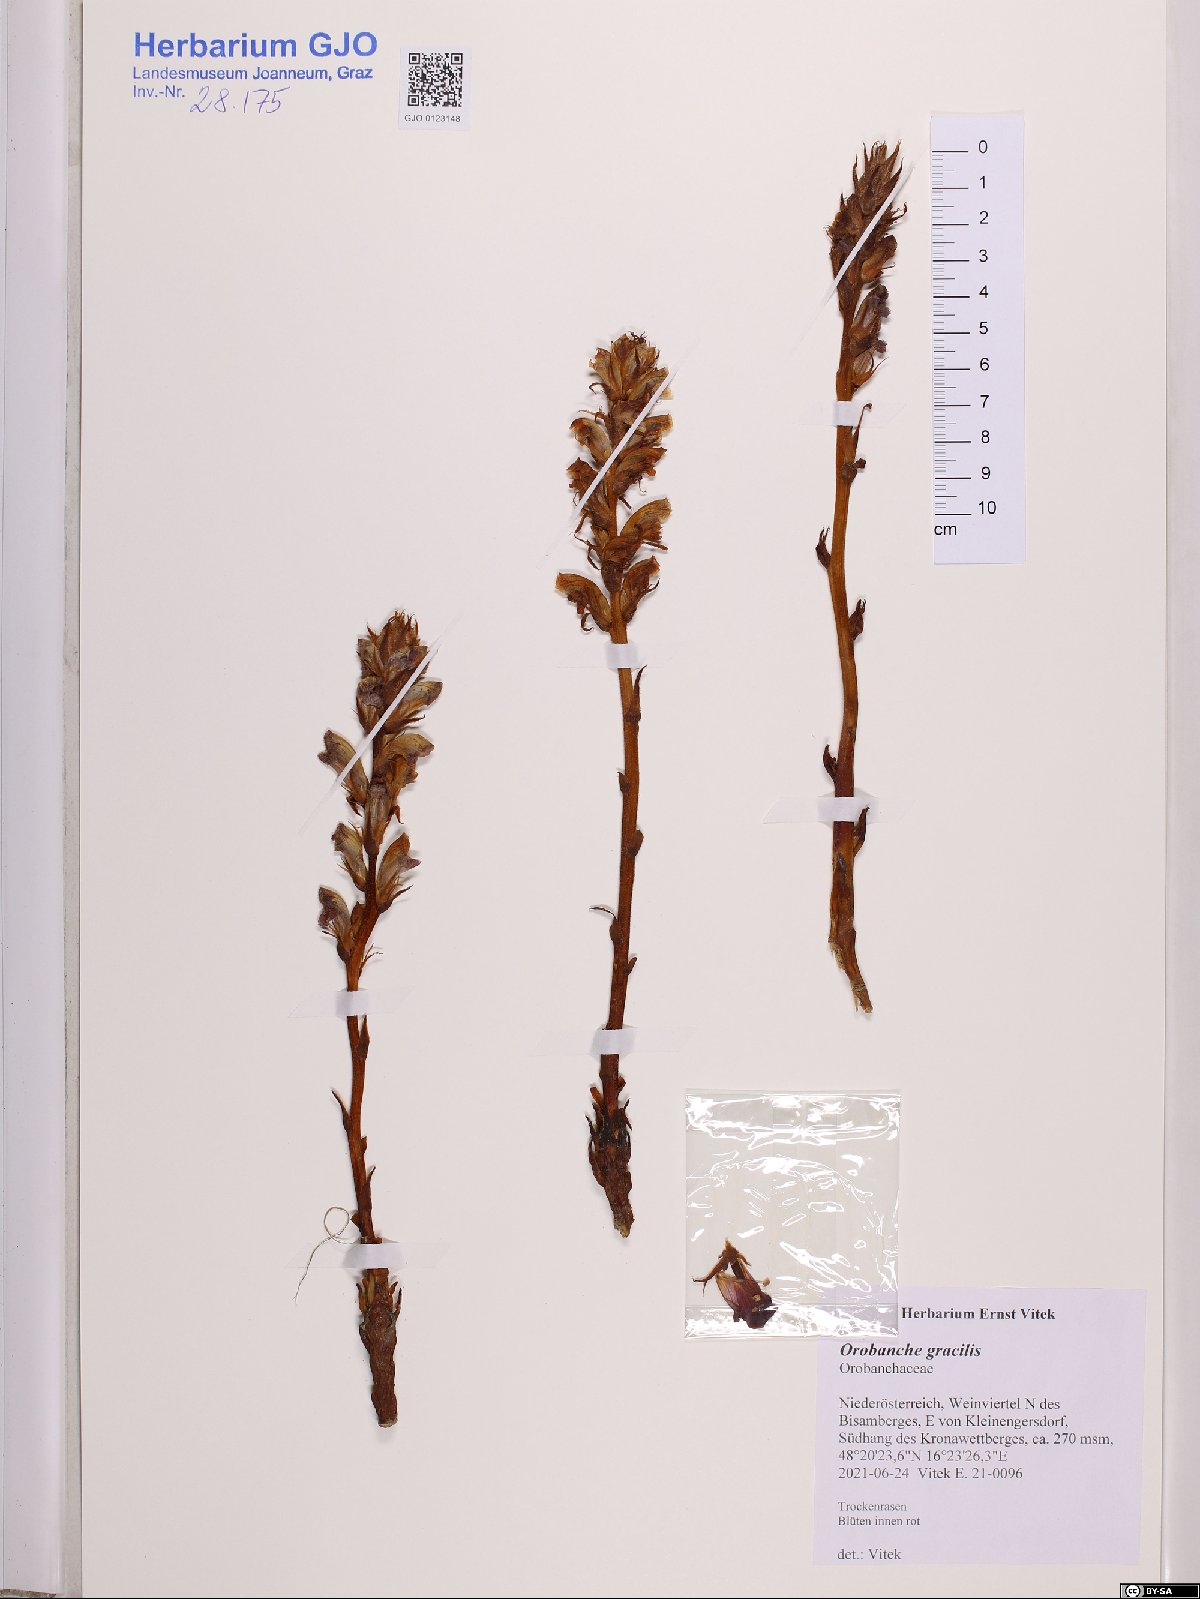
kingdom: Plantae
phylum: Tracheophyta
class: Magnoliopsida
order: Lamiales
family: Orobanchaceae
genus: Orobanche
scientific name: Orobanche gracilis
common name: Slender broomrape
